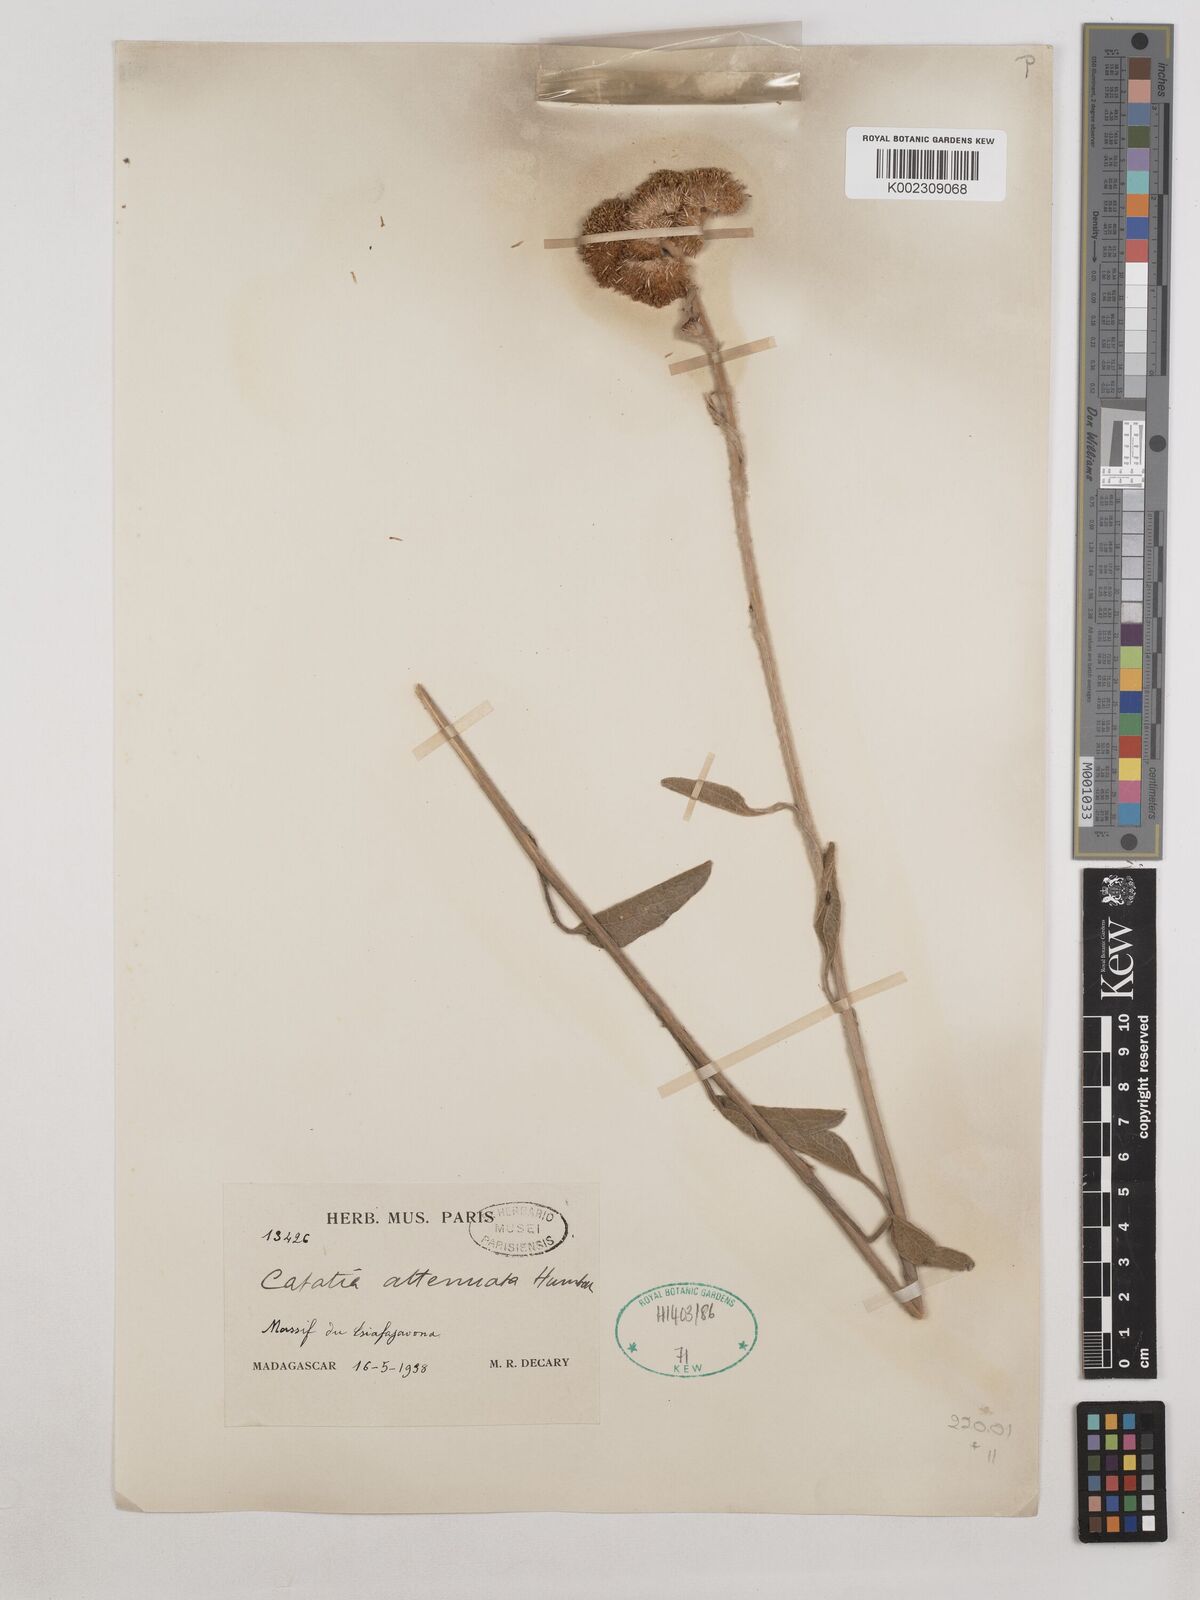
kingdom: Plantae
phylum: Tracheophyta
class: Magnoliopsida
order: Asterales
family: Asteraceae
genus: Catatia
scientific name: Catatia attenuata
